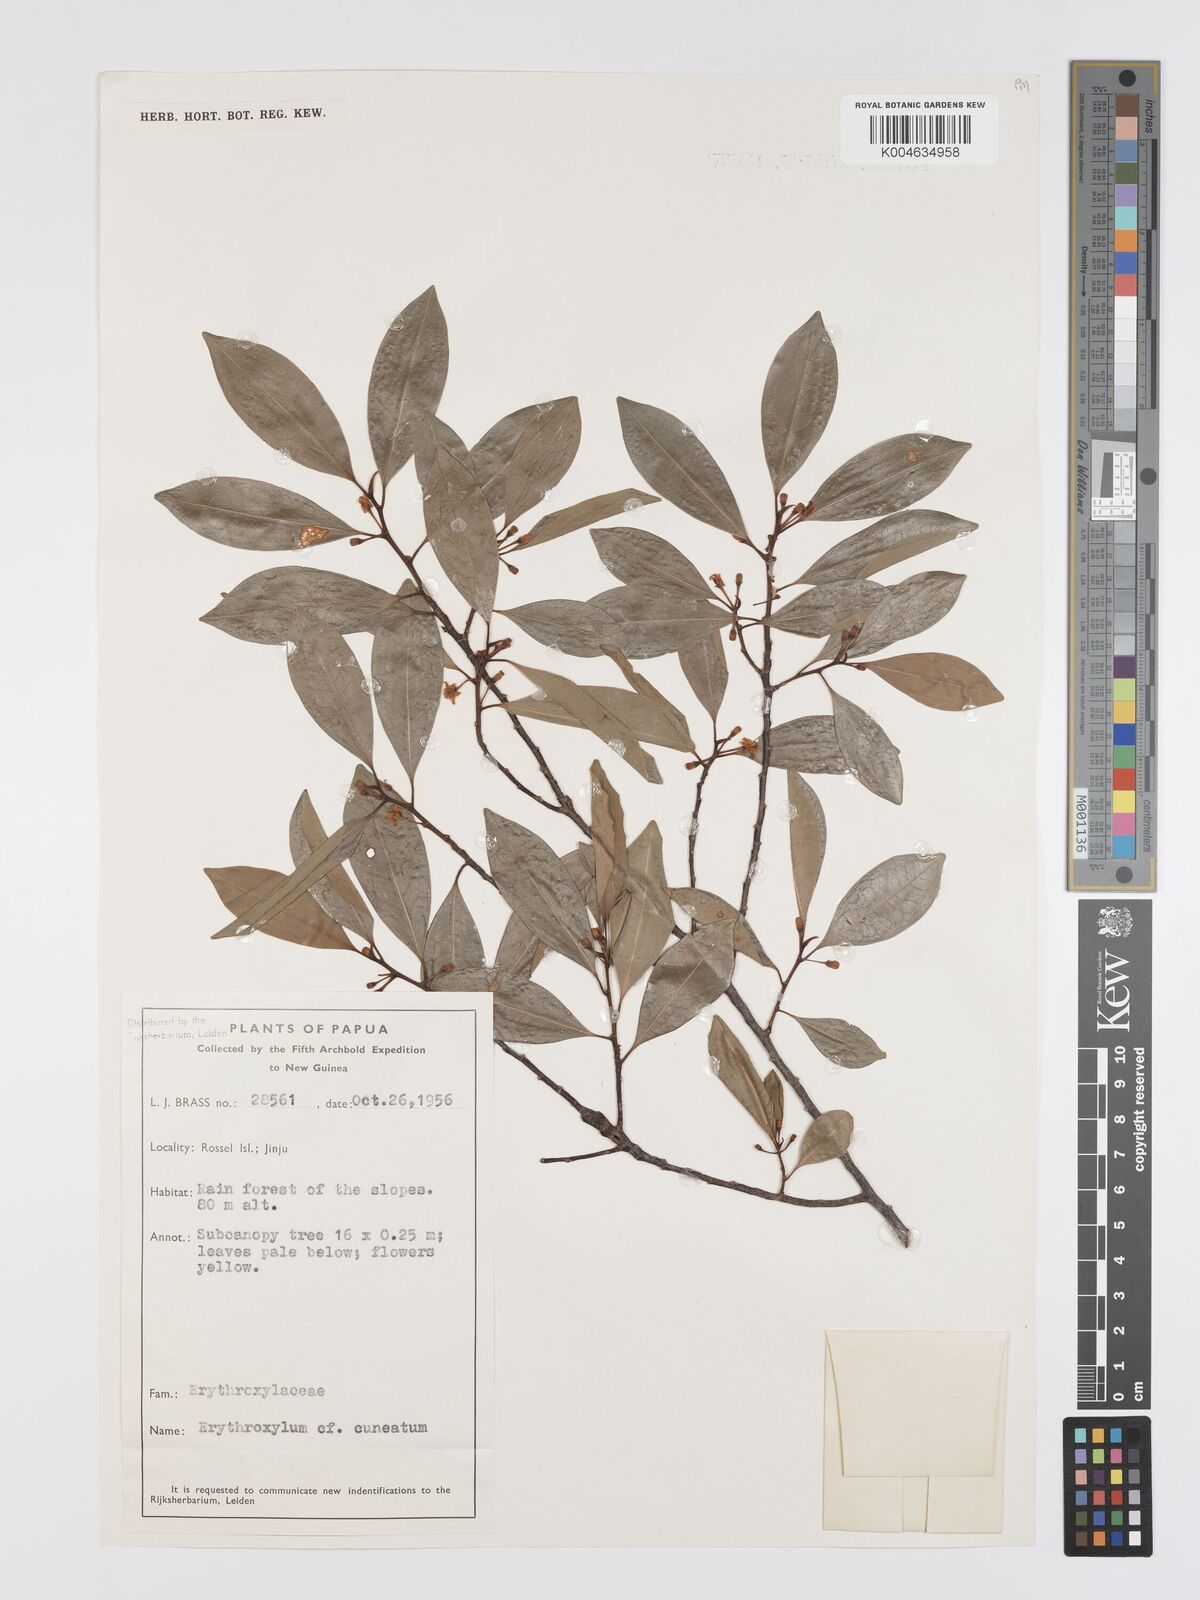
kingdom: Plantae
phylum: Tracheophyta
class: Magnoliopsida
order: Malpighiales
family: Erythroxylaceae
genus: Erythroxylum
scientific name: Erythroxylum cuneatum
